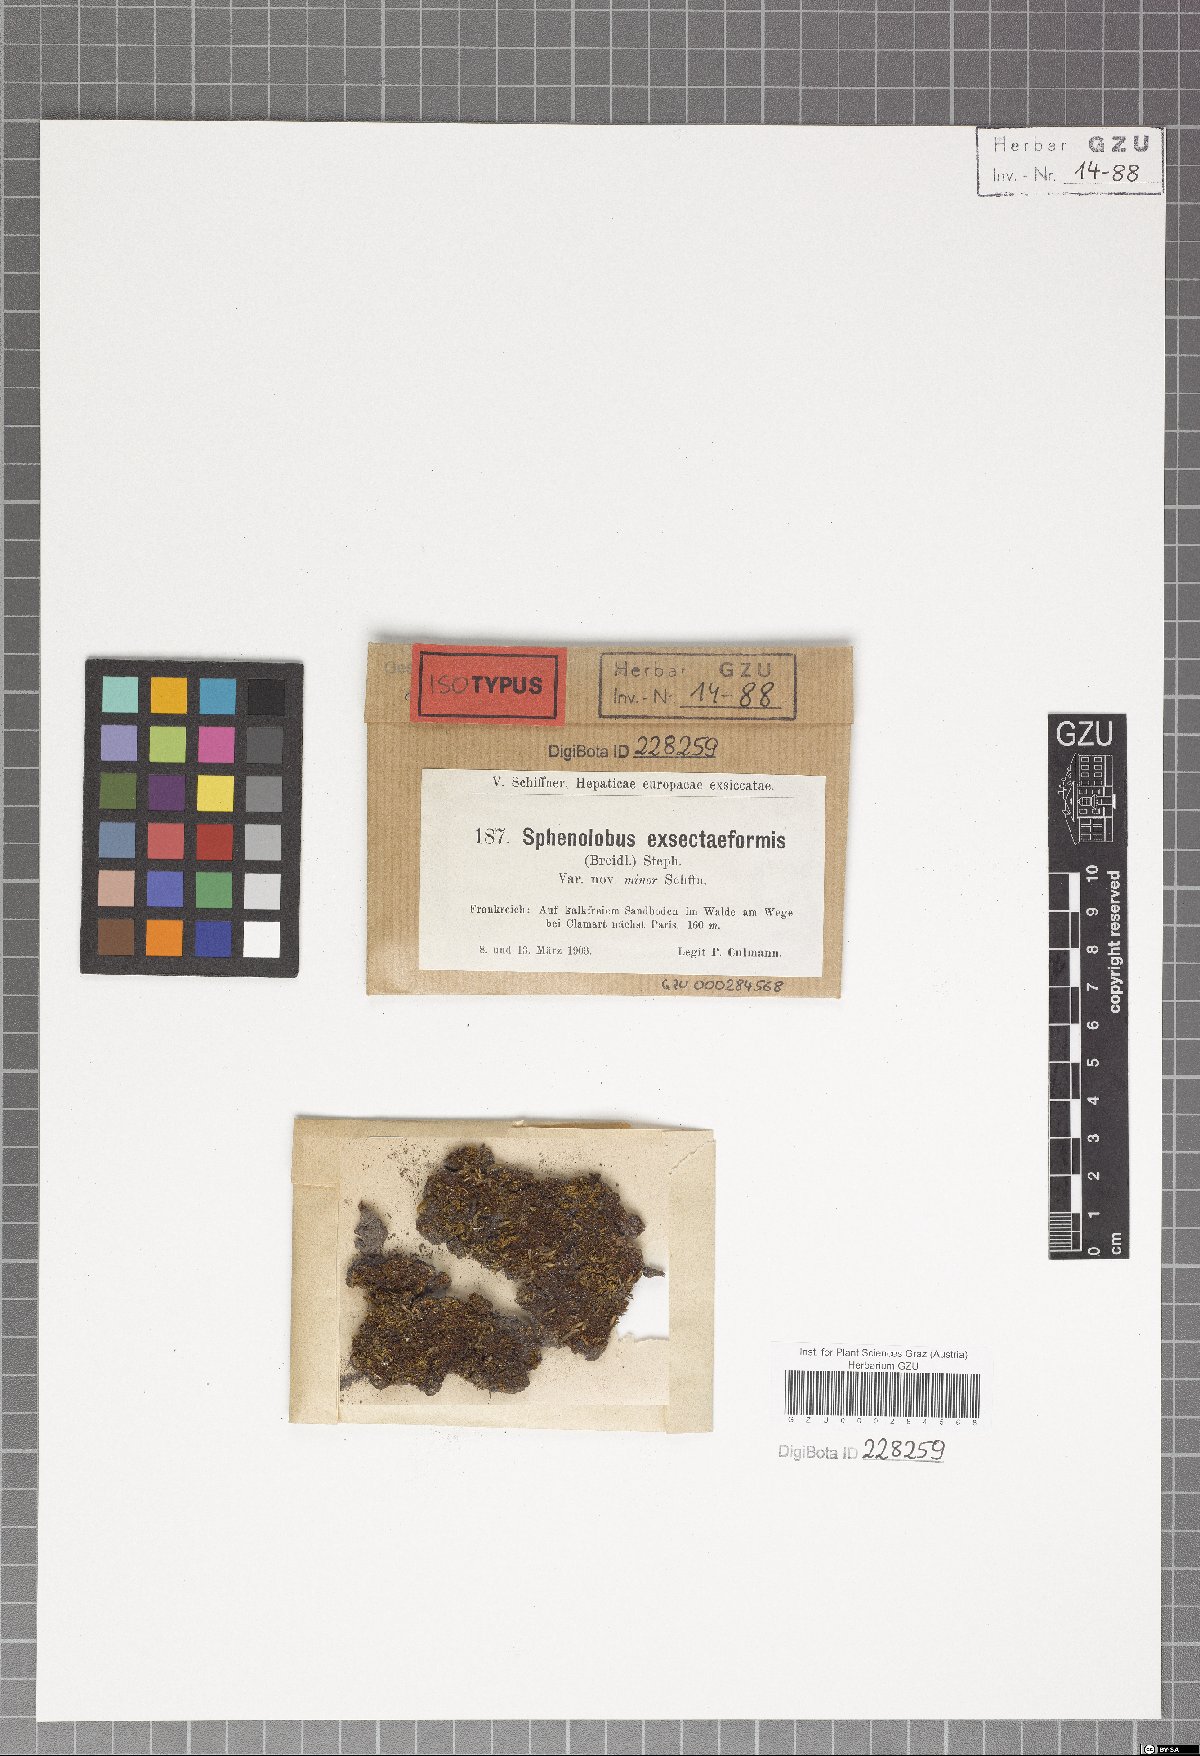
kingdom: Plantae
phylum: Marchantiophyta
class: Jungermanniopsida
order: Jungermanniales
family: Lophoziaceae
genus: Tritomaria
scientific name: Tritomaria exsectiformis
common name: Large cut notchwort
